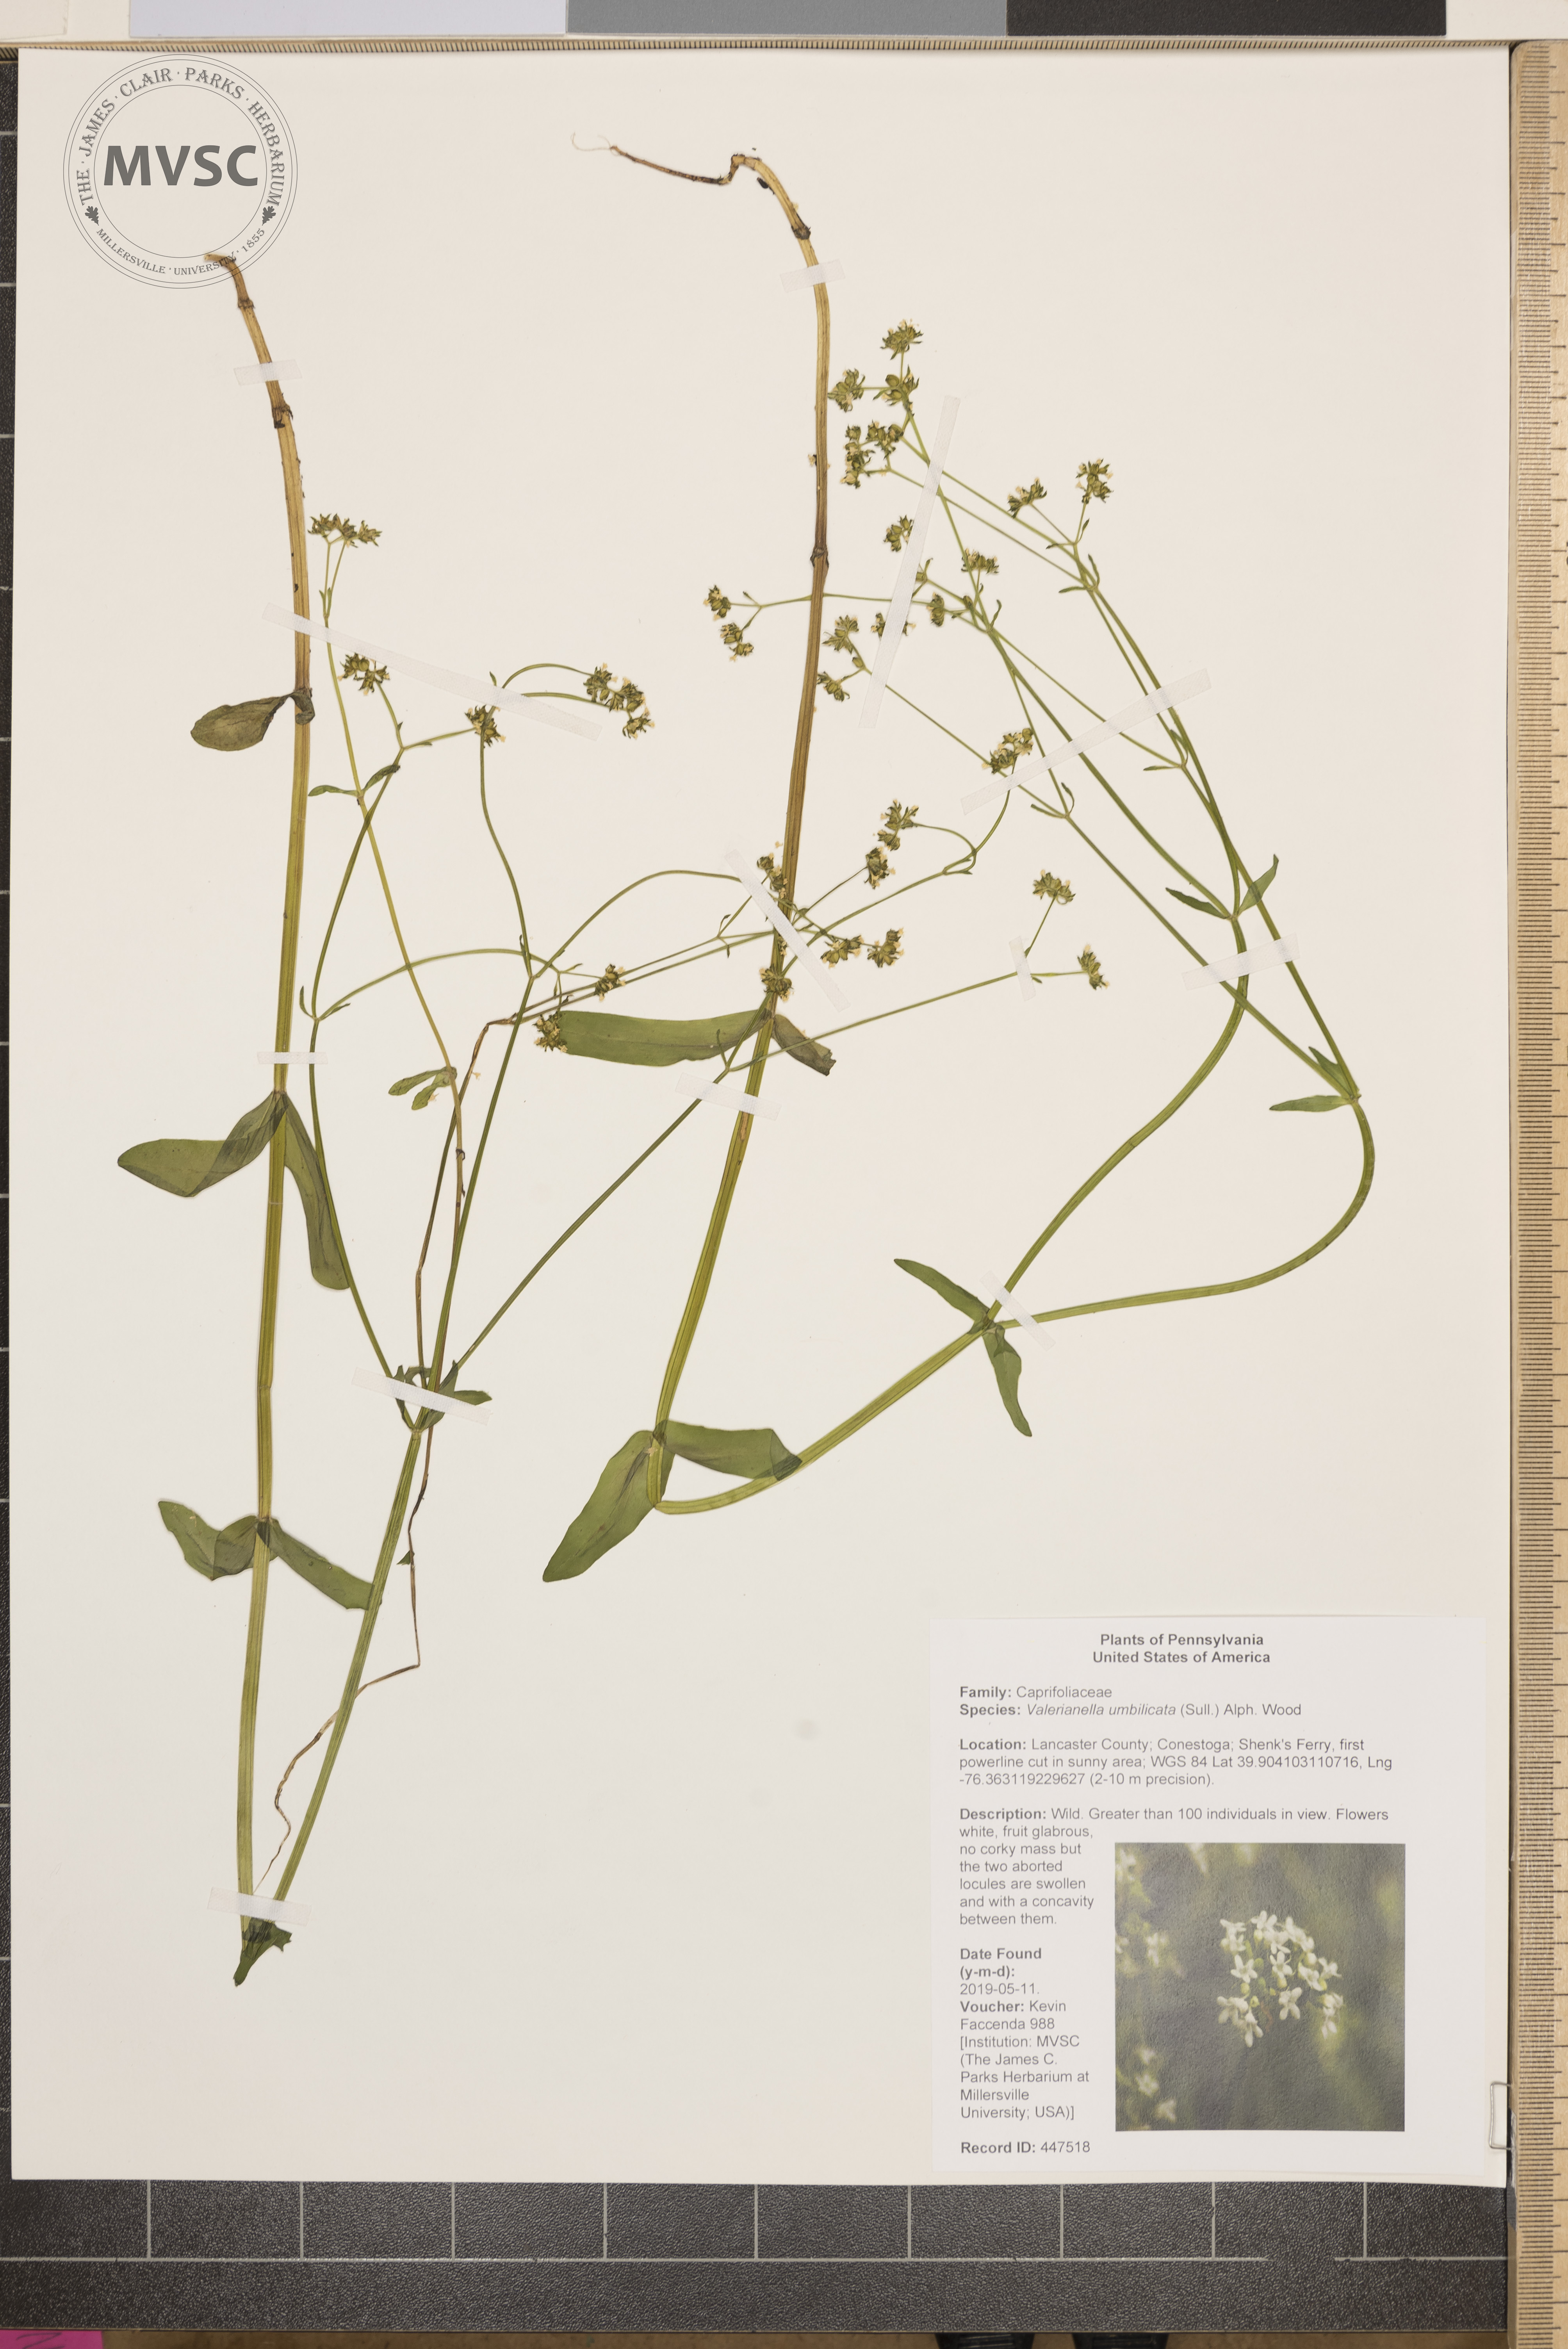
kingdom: Plantae
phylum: Tracheophyta
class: Magnoliopsida
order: Dipsacales
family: Caprifoliaceae
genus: Valerianella
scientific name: Valerianella umbilicata
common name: Wood's cornsalad
